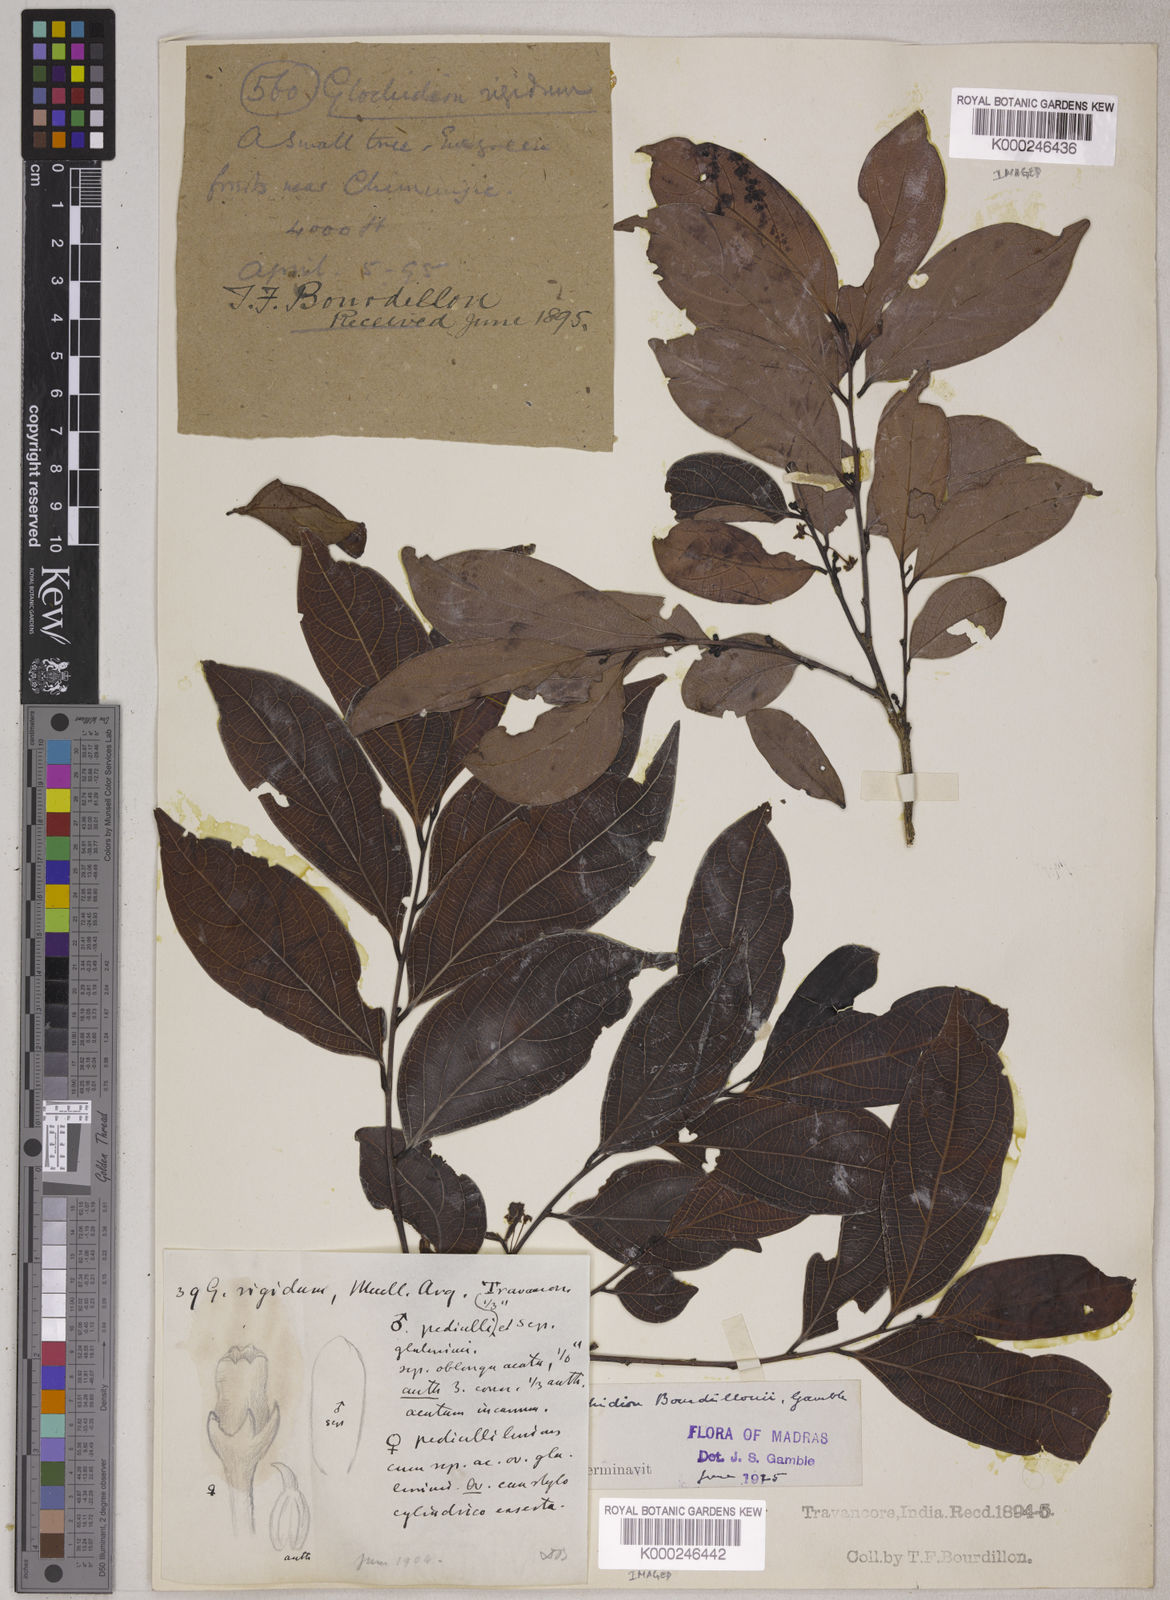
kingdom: Plantae
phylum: Tracheophyta
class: Magnoliopsida
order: Malpighiales
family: Phyllanthaceae
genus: Glochidion
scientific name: Glochidion bourdillonii
